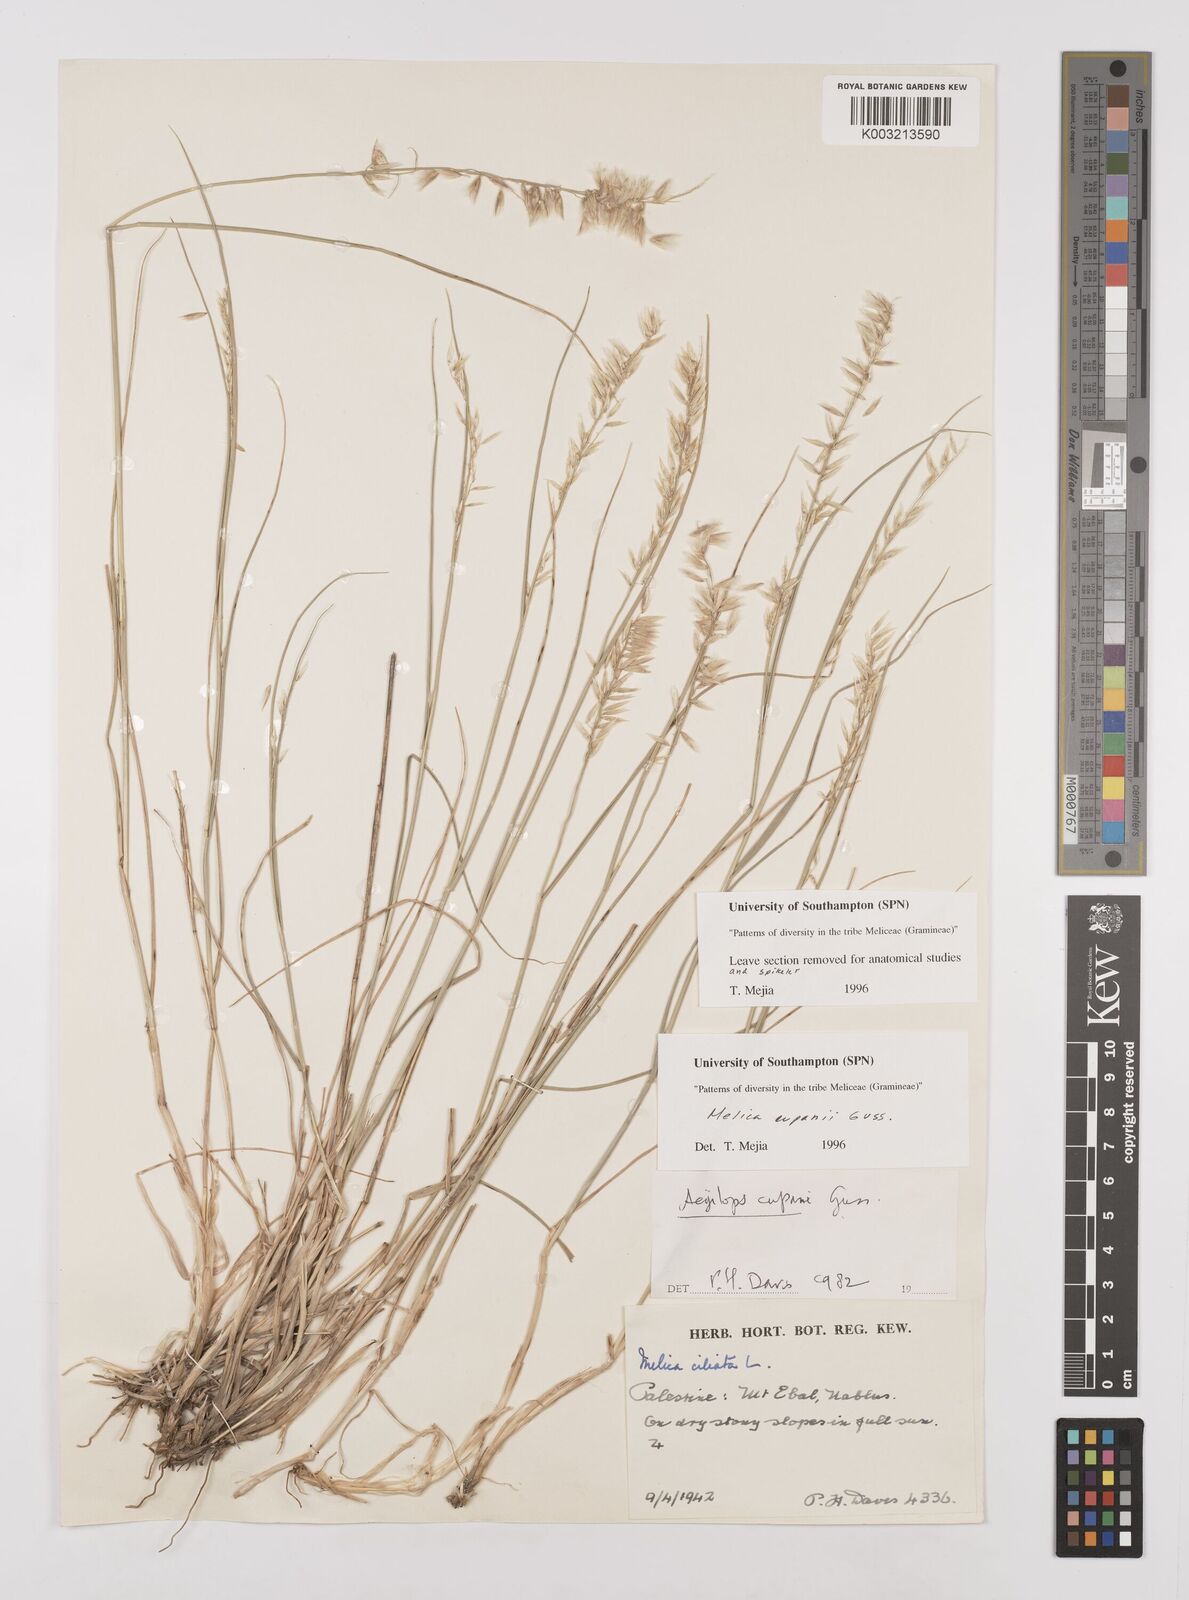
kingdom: Plantae
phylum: Tracheophyta
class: Liliopsida
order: Poales
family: Poaceae
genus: Melica
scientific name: Melica cupani
